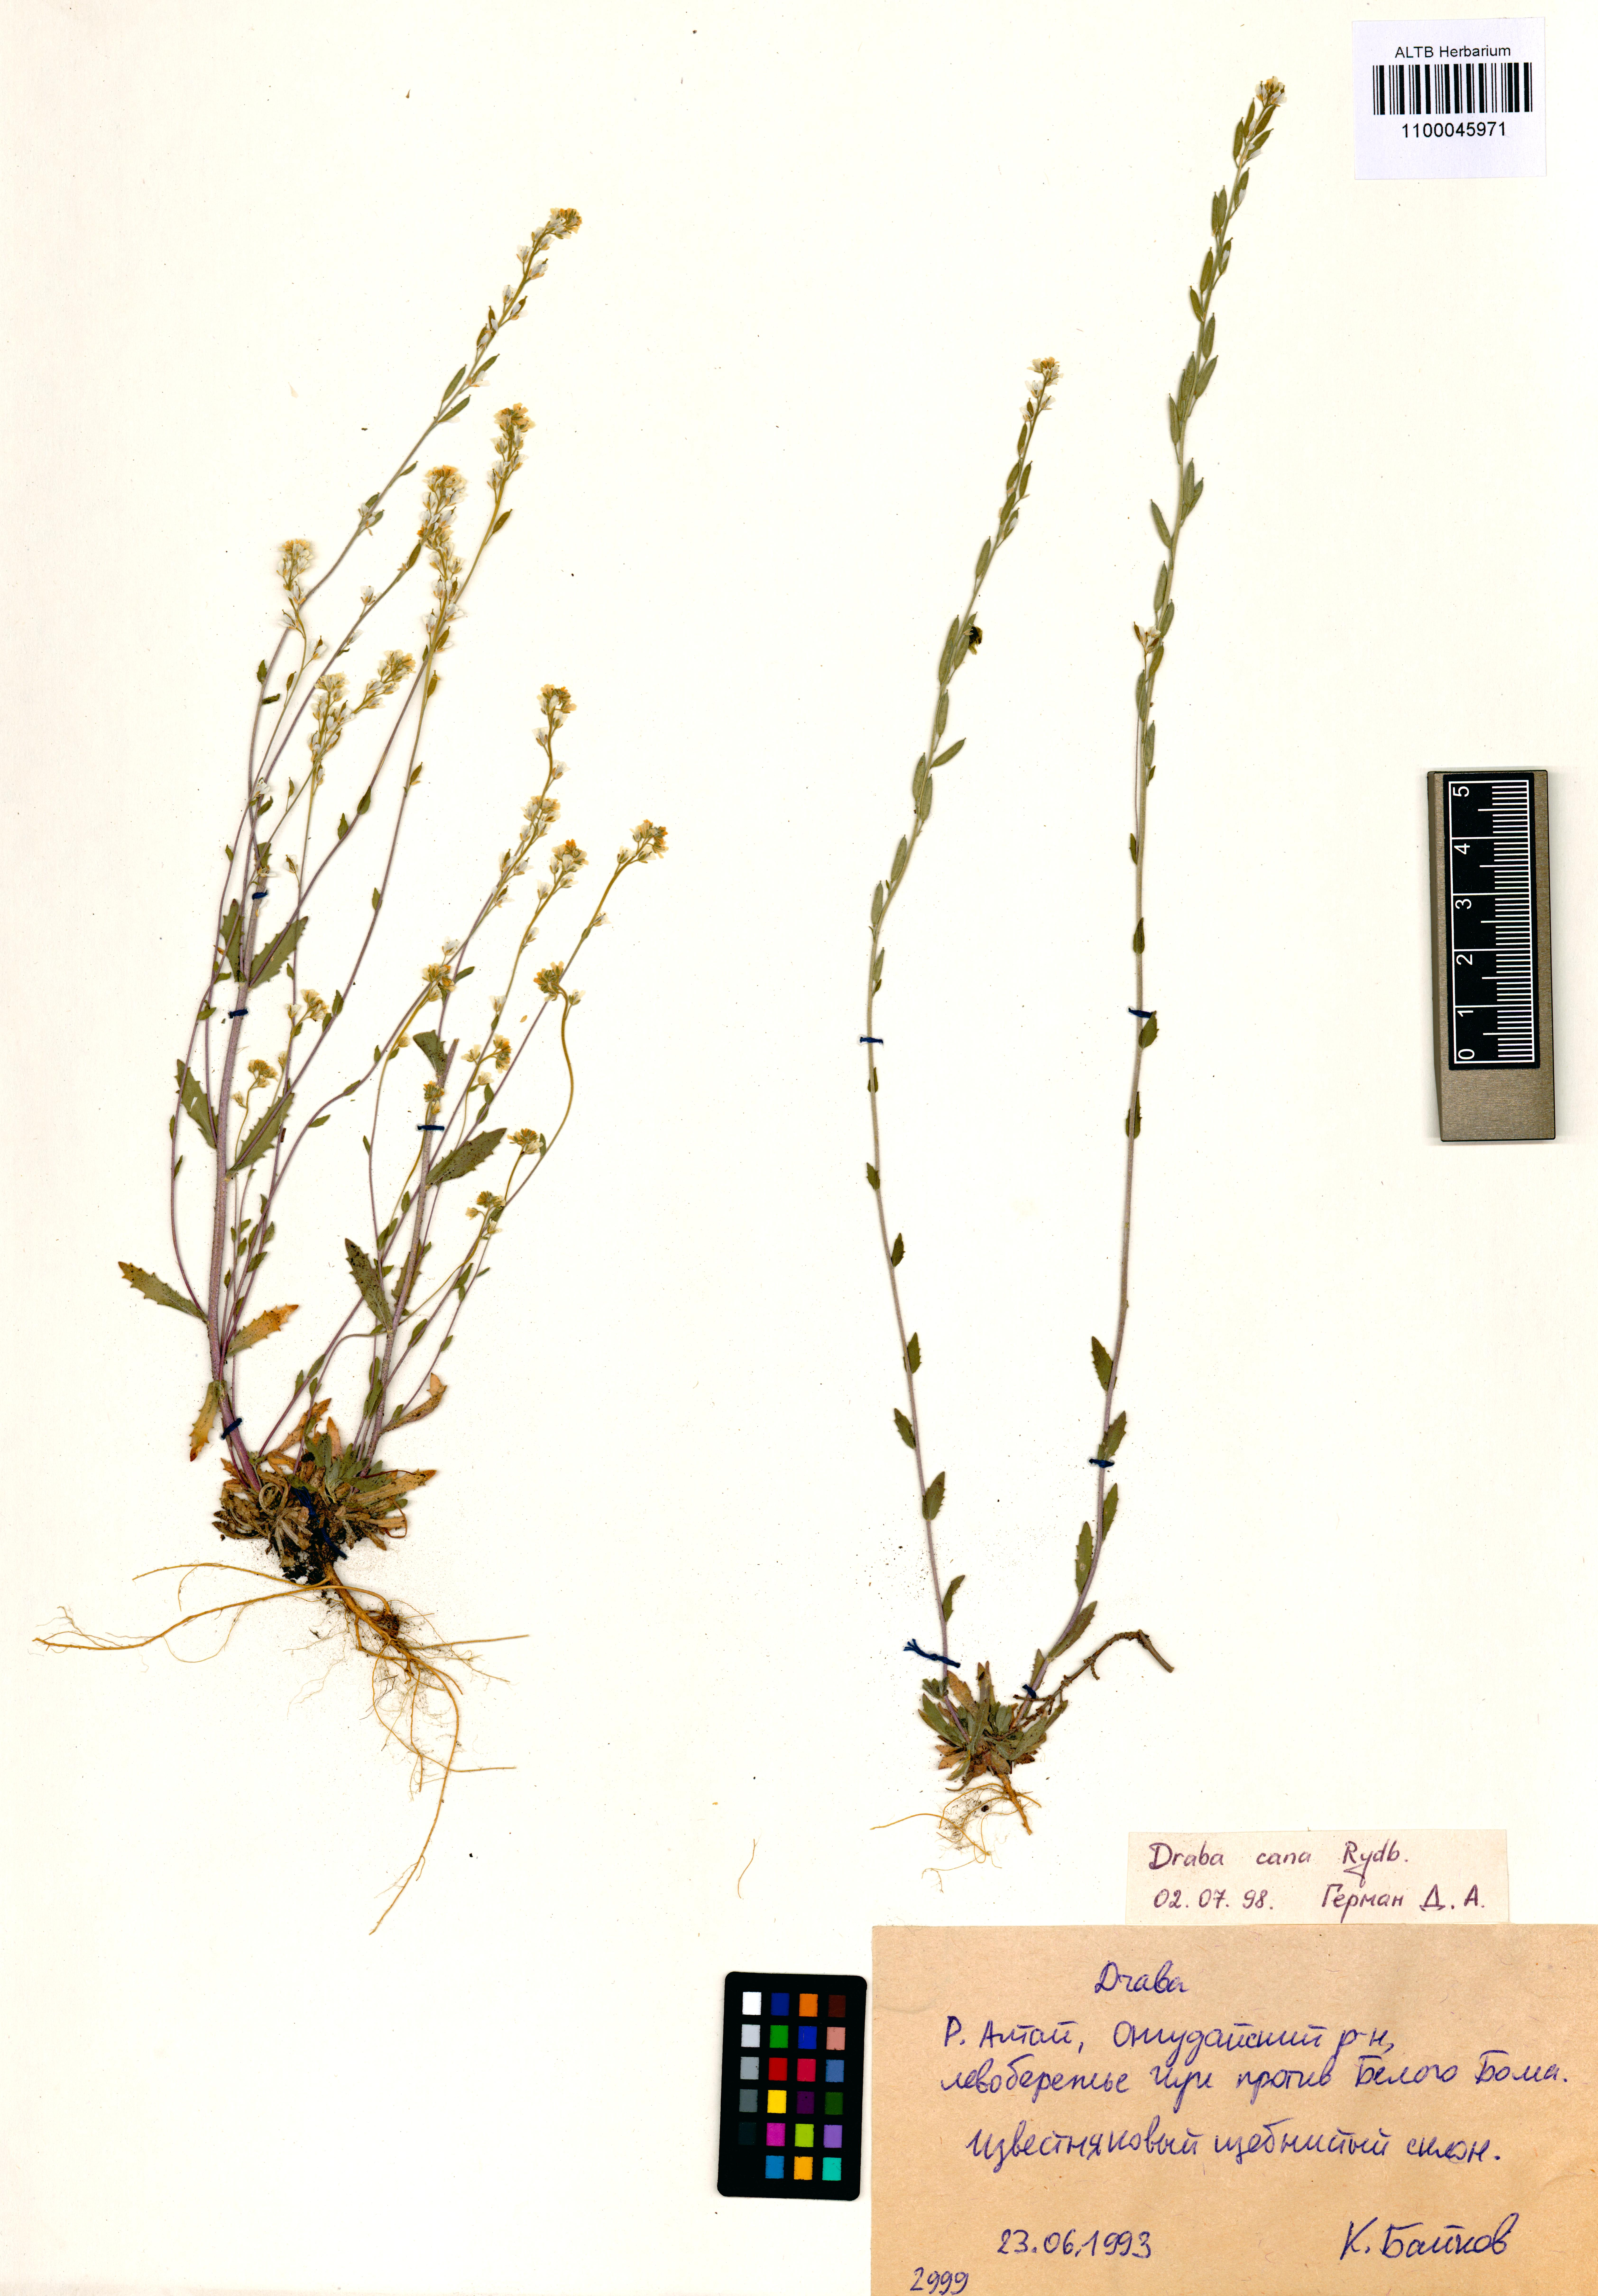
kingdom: Plantae
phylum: Tracheophyta
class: Magnoliopsida
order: Brassicales
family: Brassicaceae
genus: Draba
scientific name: Draba cana
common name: Hoary draba
